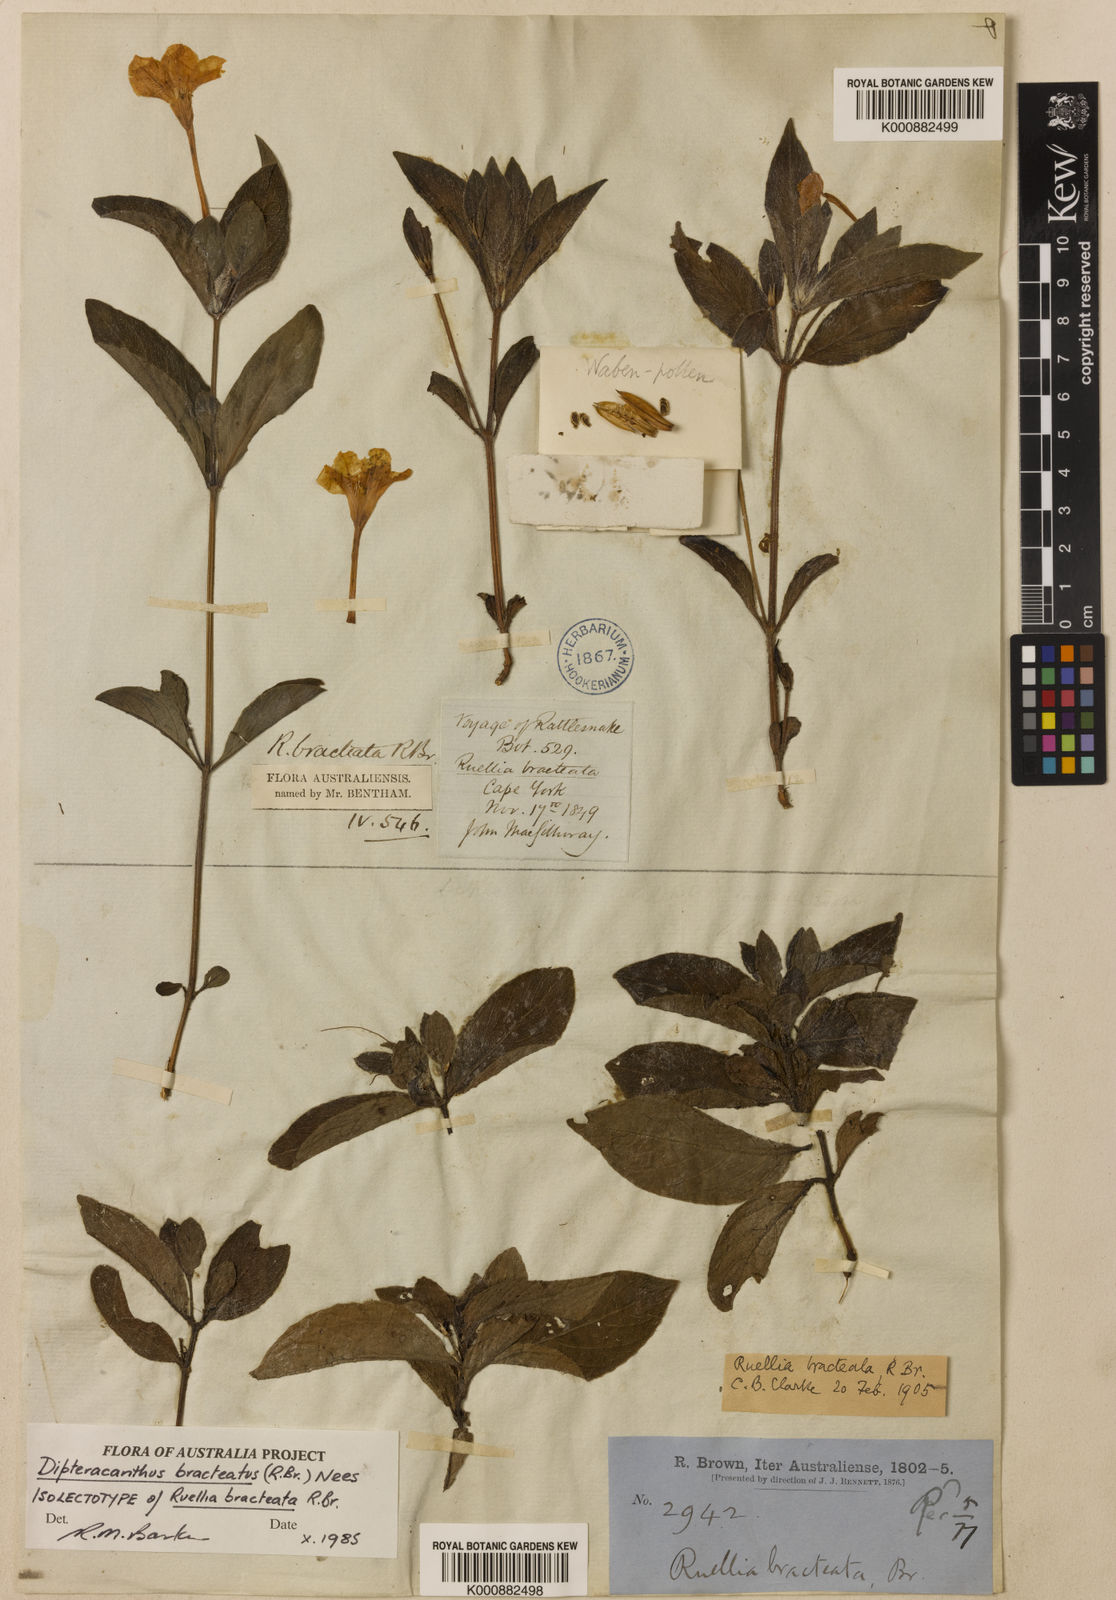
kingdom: Plantae
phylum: Tracheophyta
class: Magnoliopsida
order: Lamiales
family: Acanthaceae
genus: Ruellia
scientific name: Ruellia bracteata
